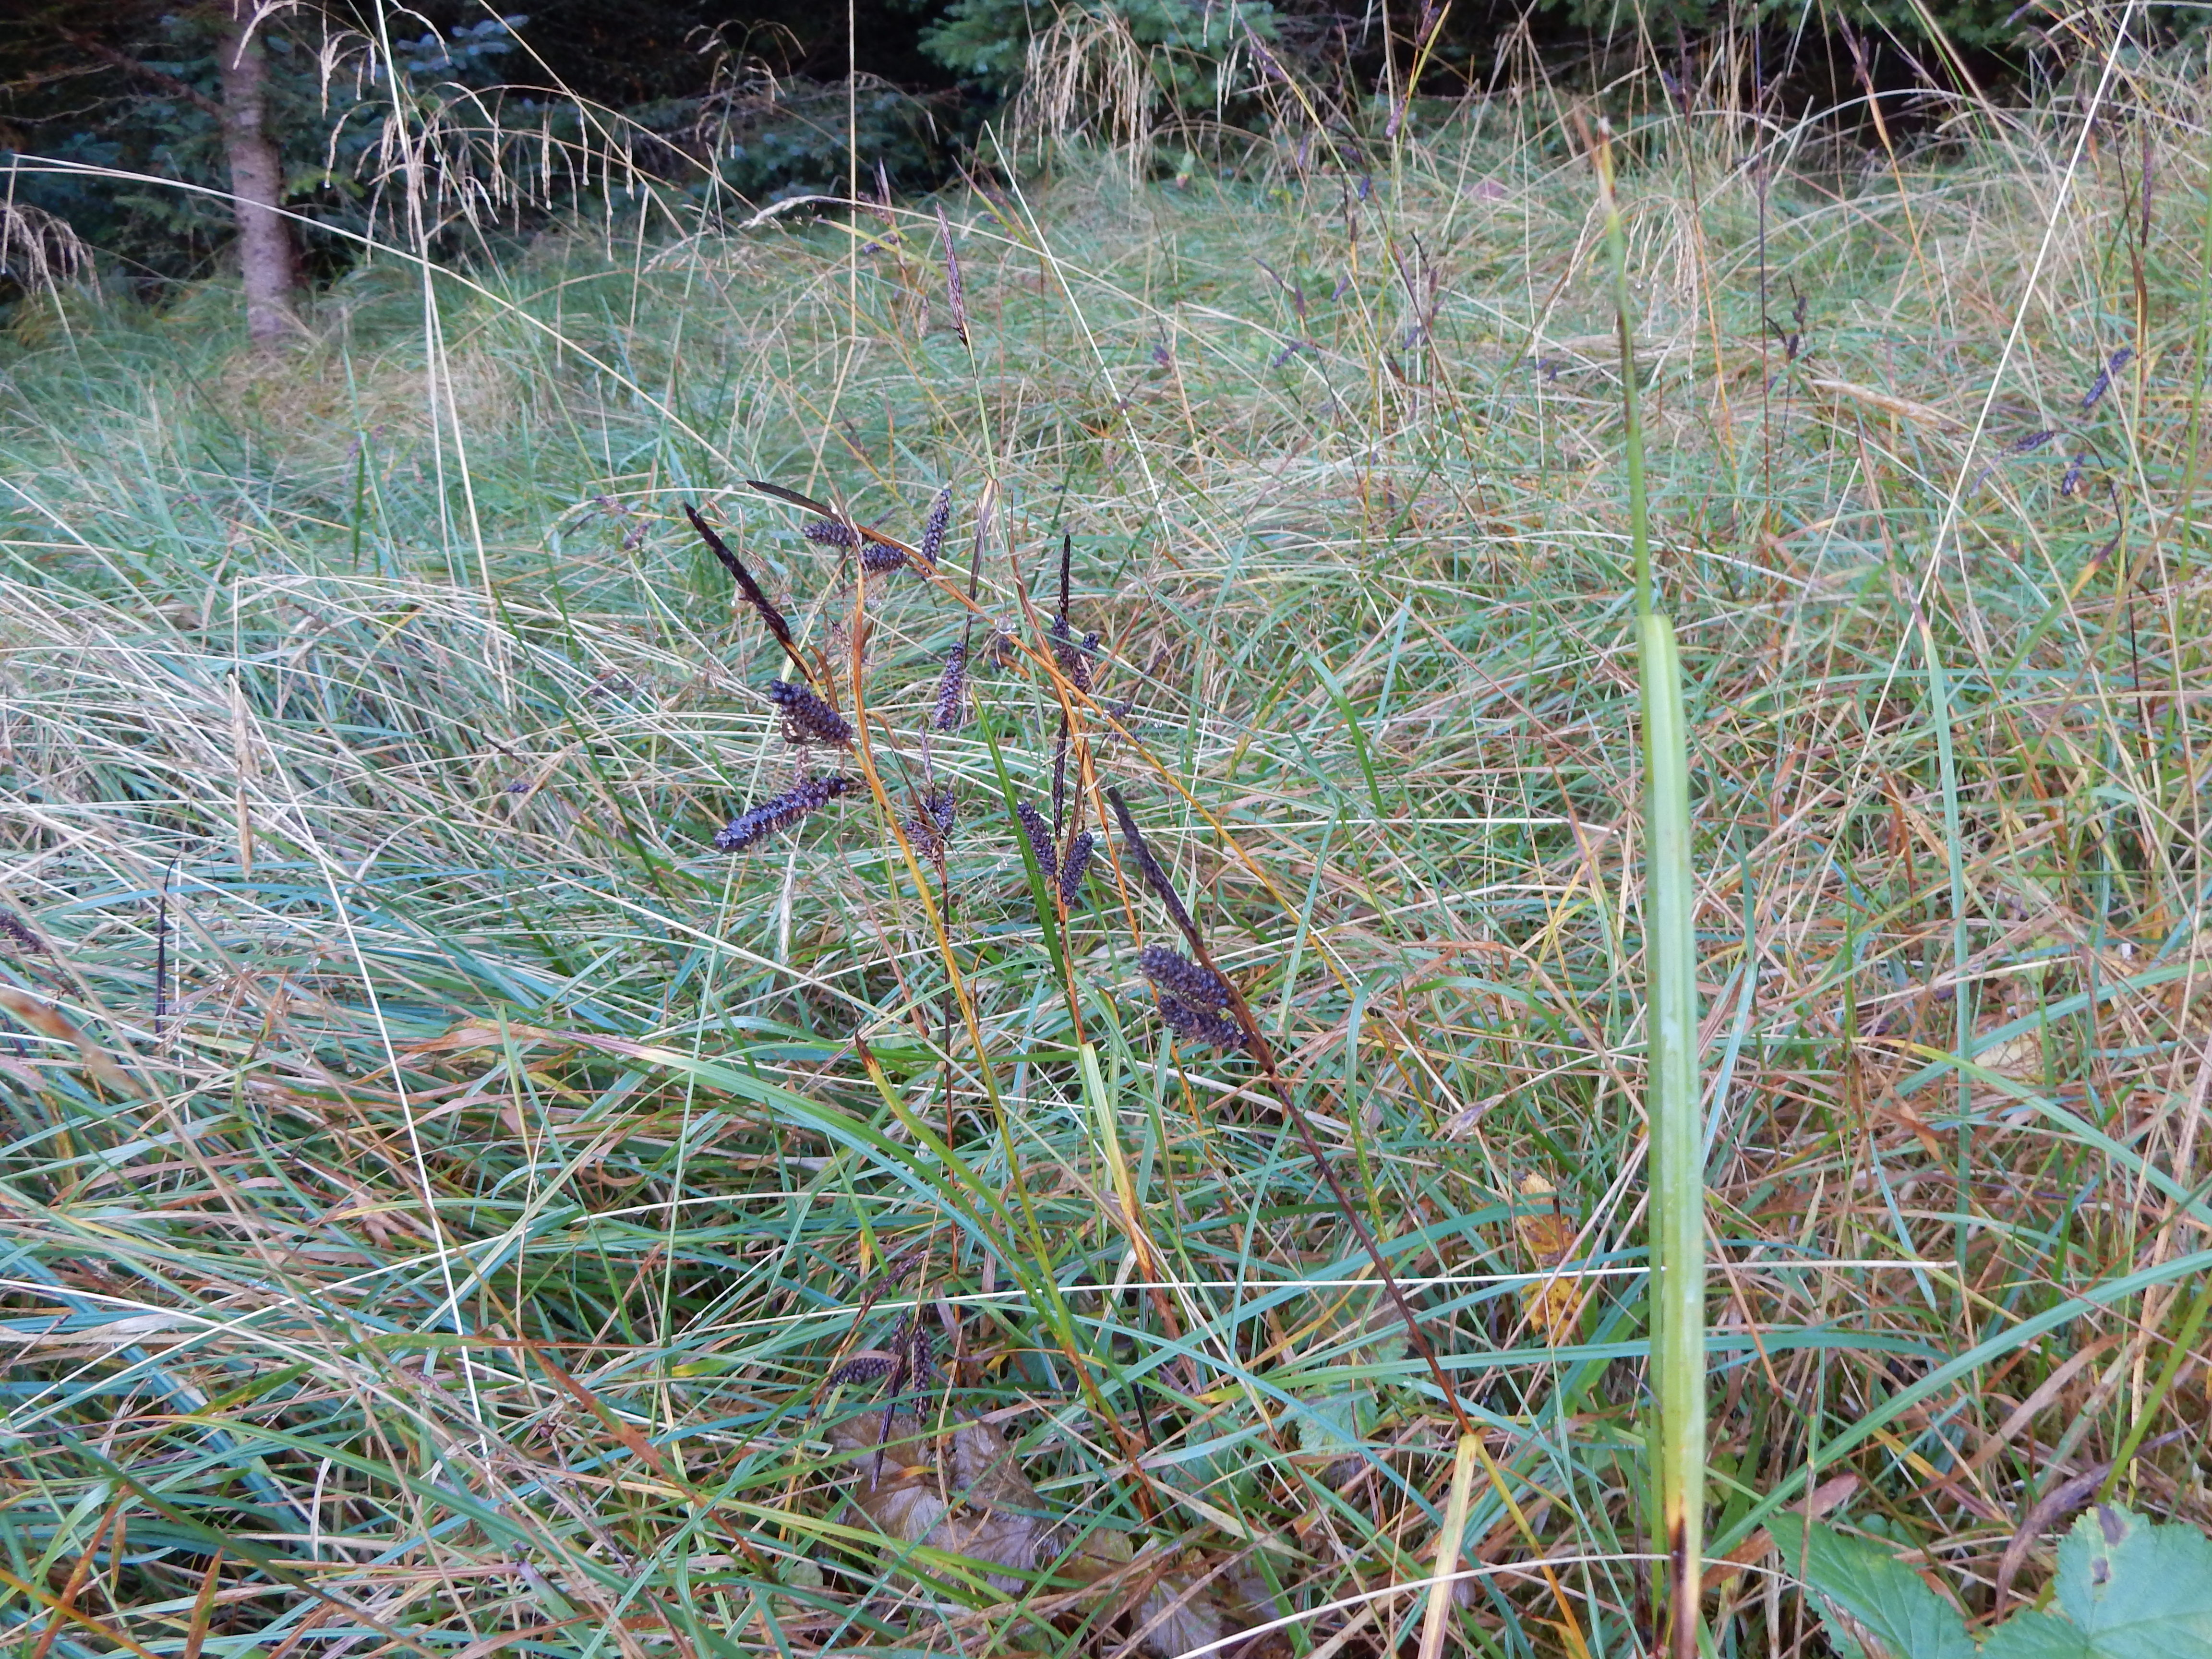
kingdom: Plantae
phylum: Tracheophyta
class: Liliopsida
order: Poales
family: Cyperaceae
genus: Carex
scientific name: Carex flacca
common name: Glaucous sedge
